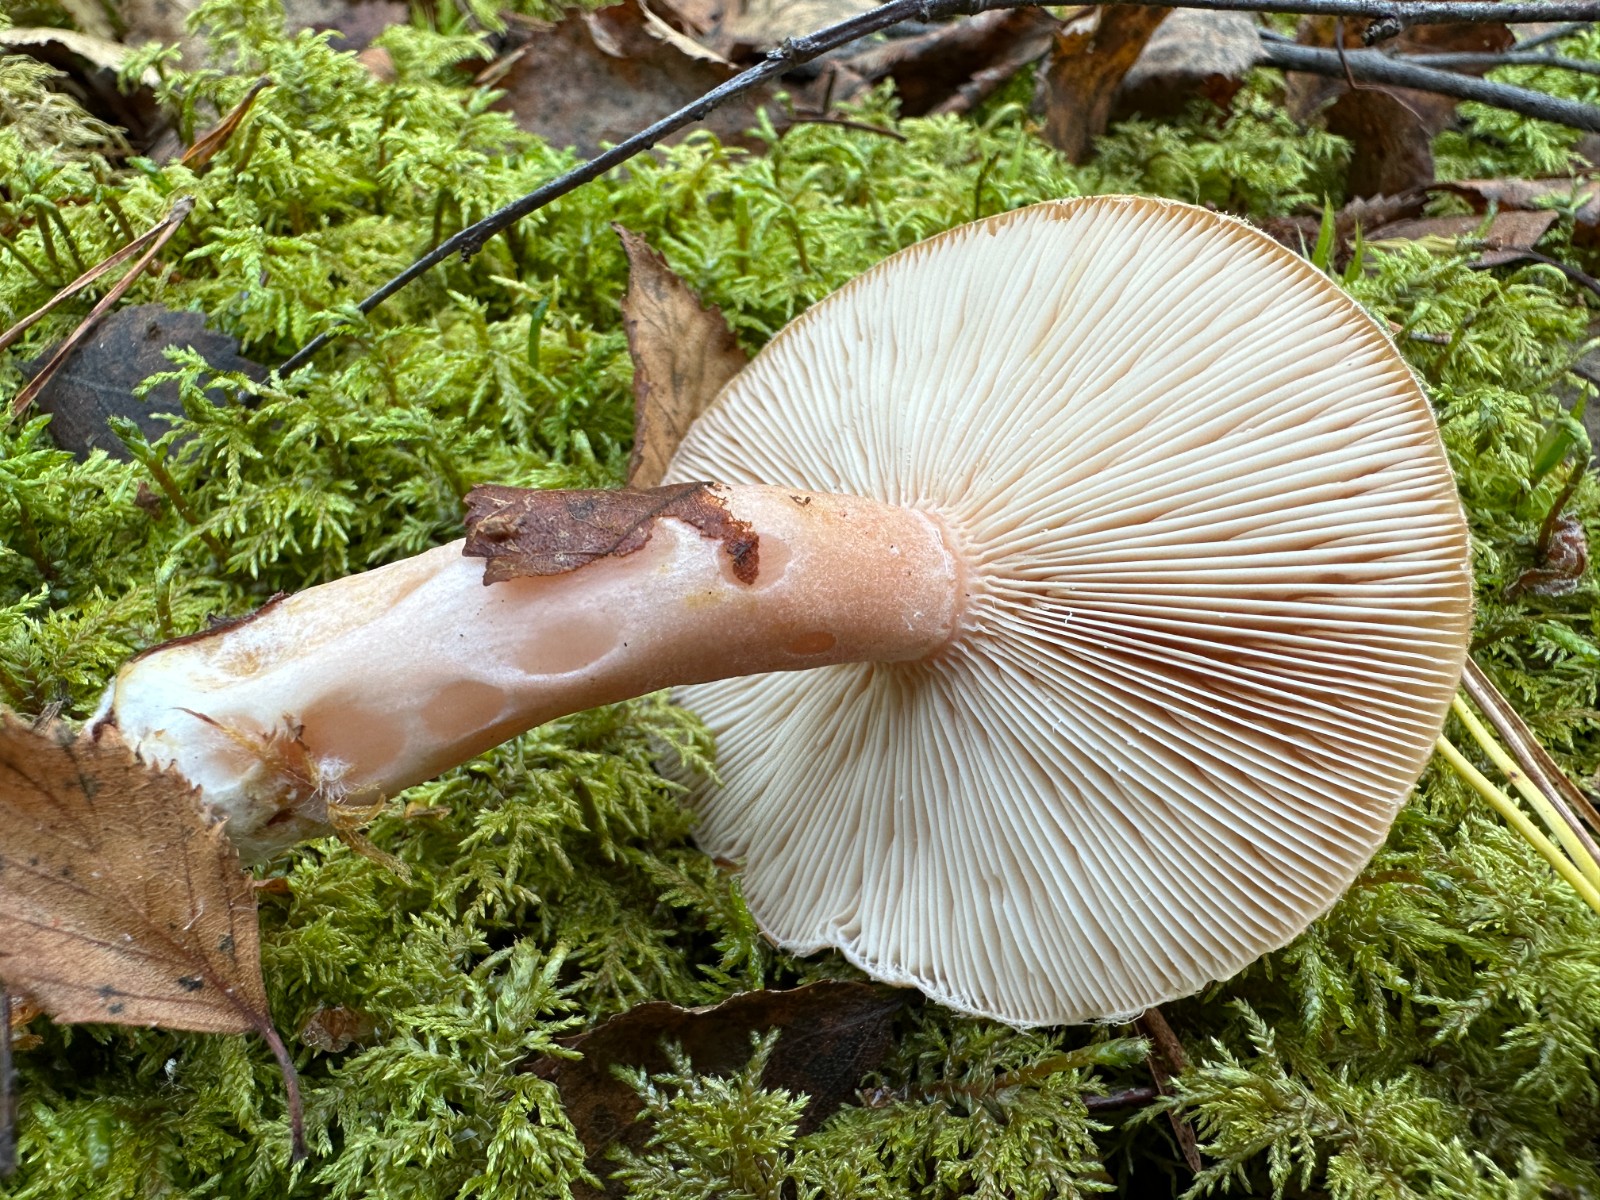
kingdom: Fungi
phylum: Basidiomycota
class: Agaricomycetes
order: Russulales
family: Russulaceae
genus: Lactarius
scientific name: Lactarius vietus
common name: violetgrå mælkehat
